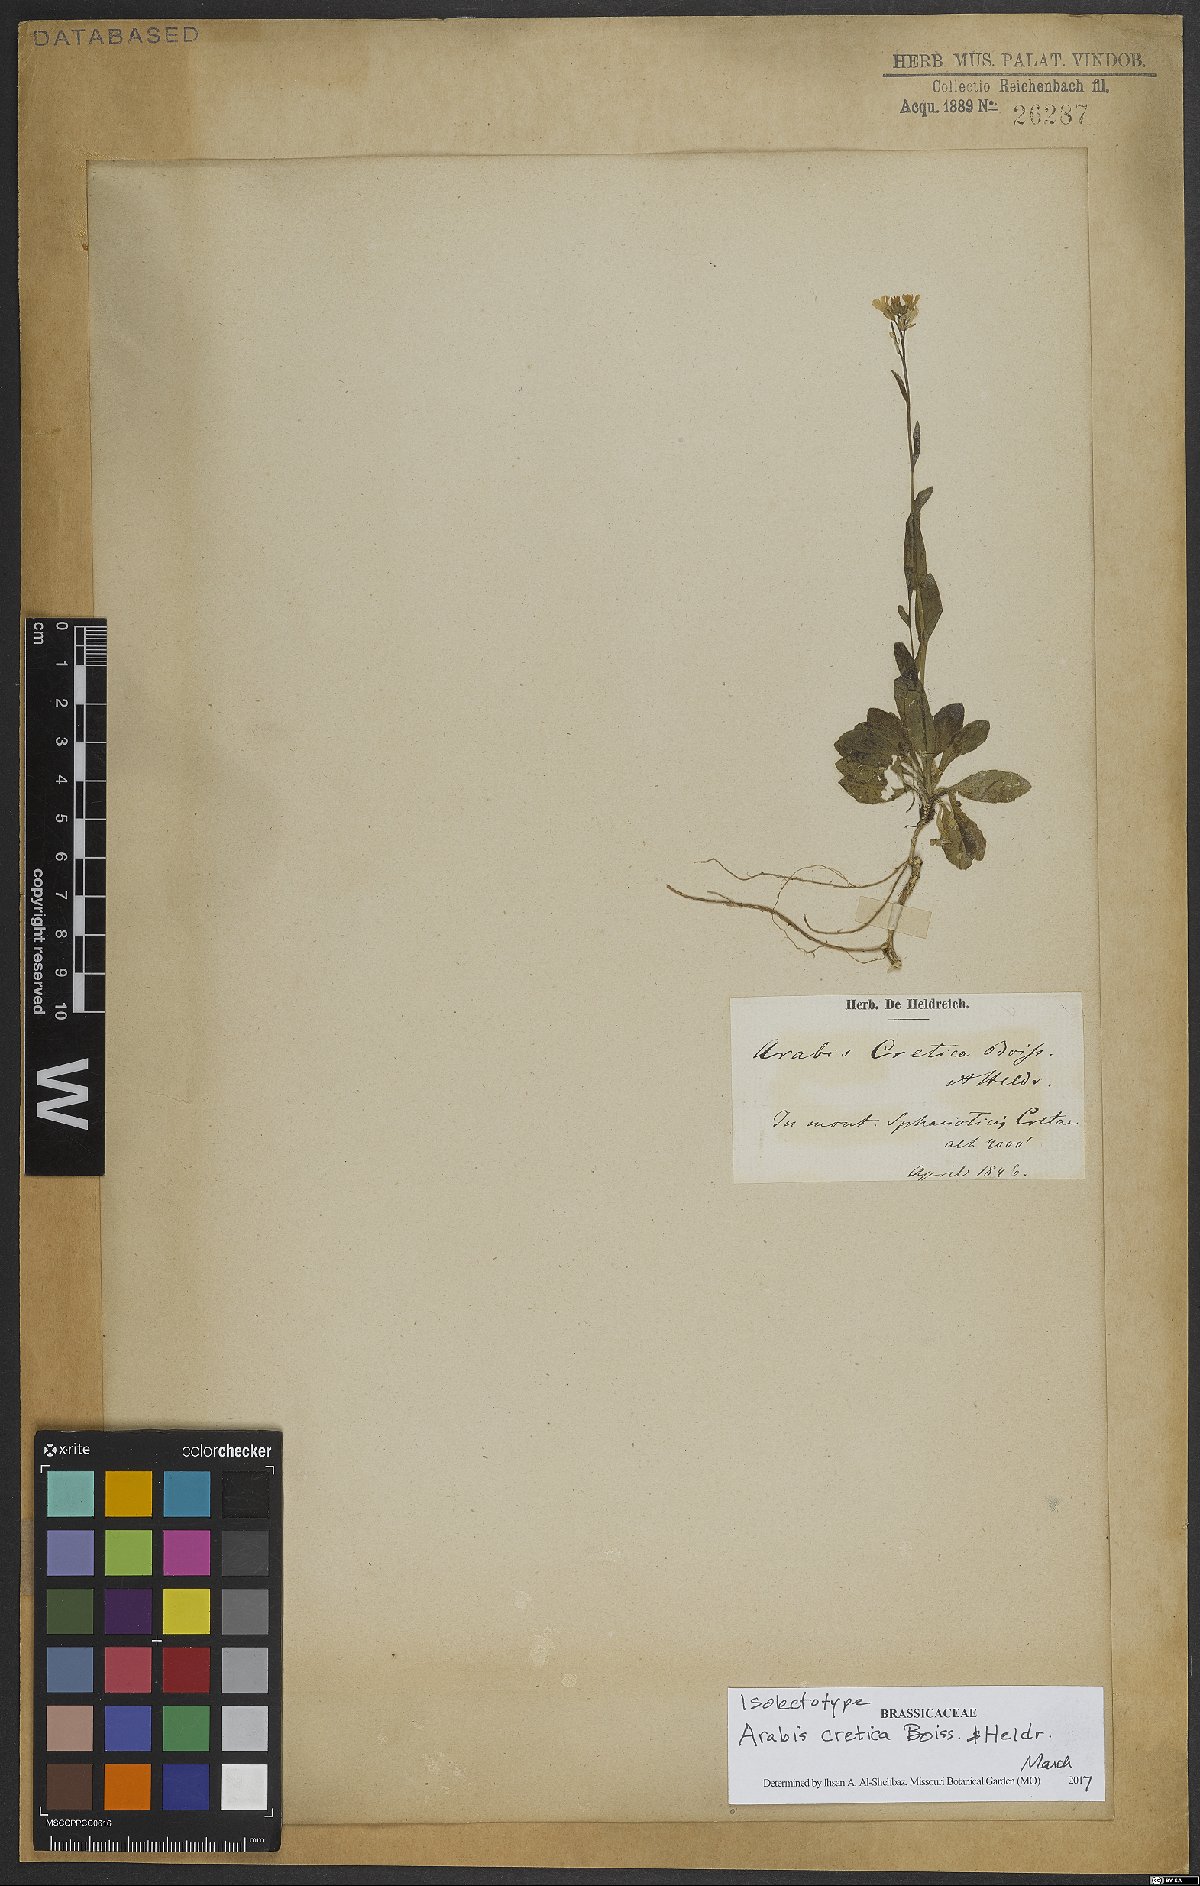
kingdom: Plantae
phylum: Tracheophyta
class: Magnoliopsida
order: Brassicales
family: Brassicaceae
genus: Arabis
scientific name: Arabis cretica
